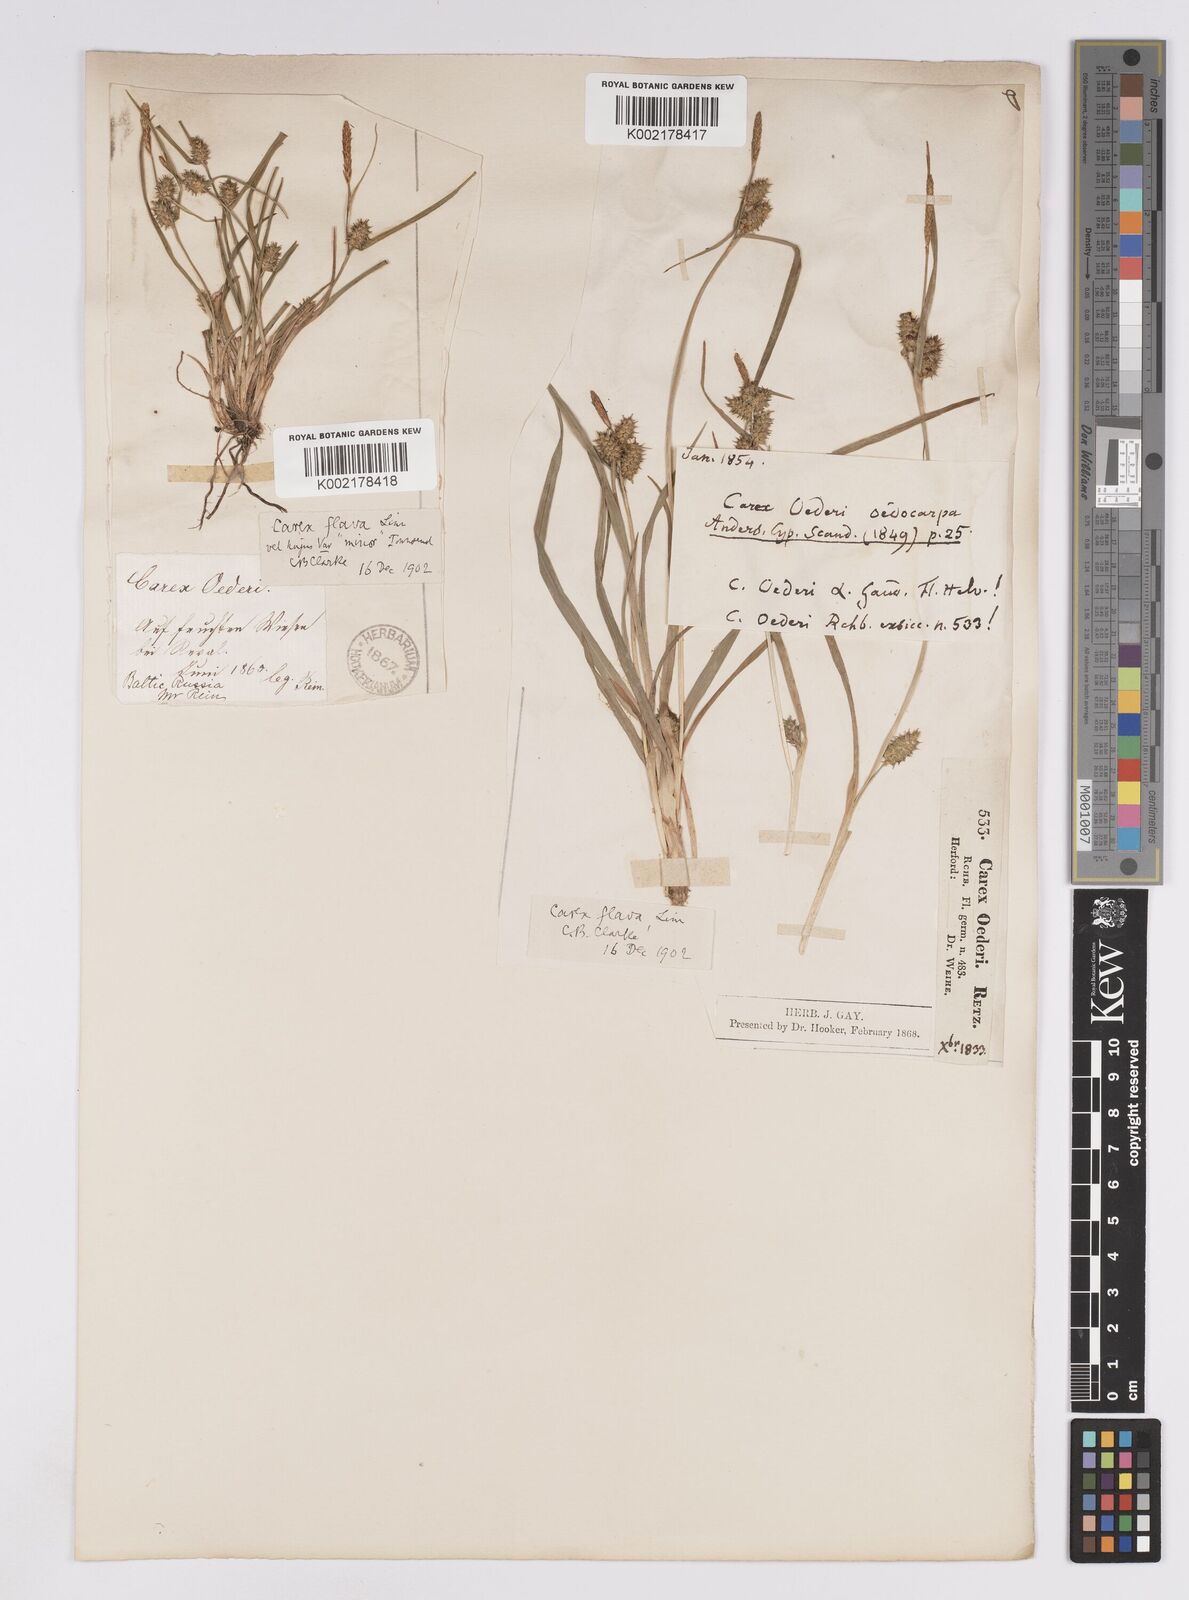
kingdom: Plantae
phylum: Tracheophyta
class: Liliopsida
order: Poales
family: Cyperaceae
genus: Carex
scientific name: Carex demissa
